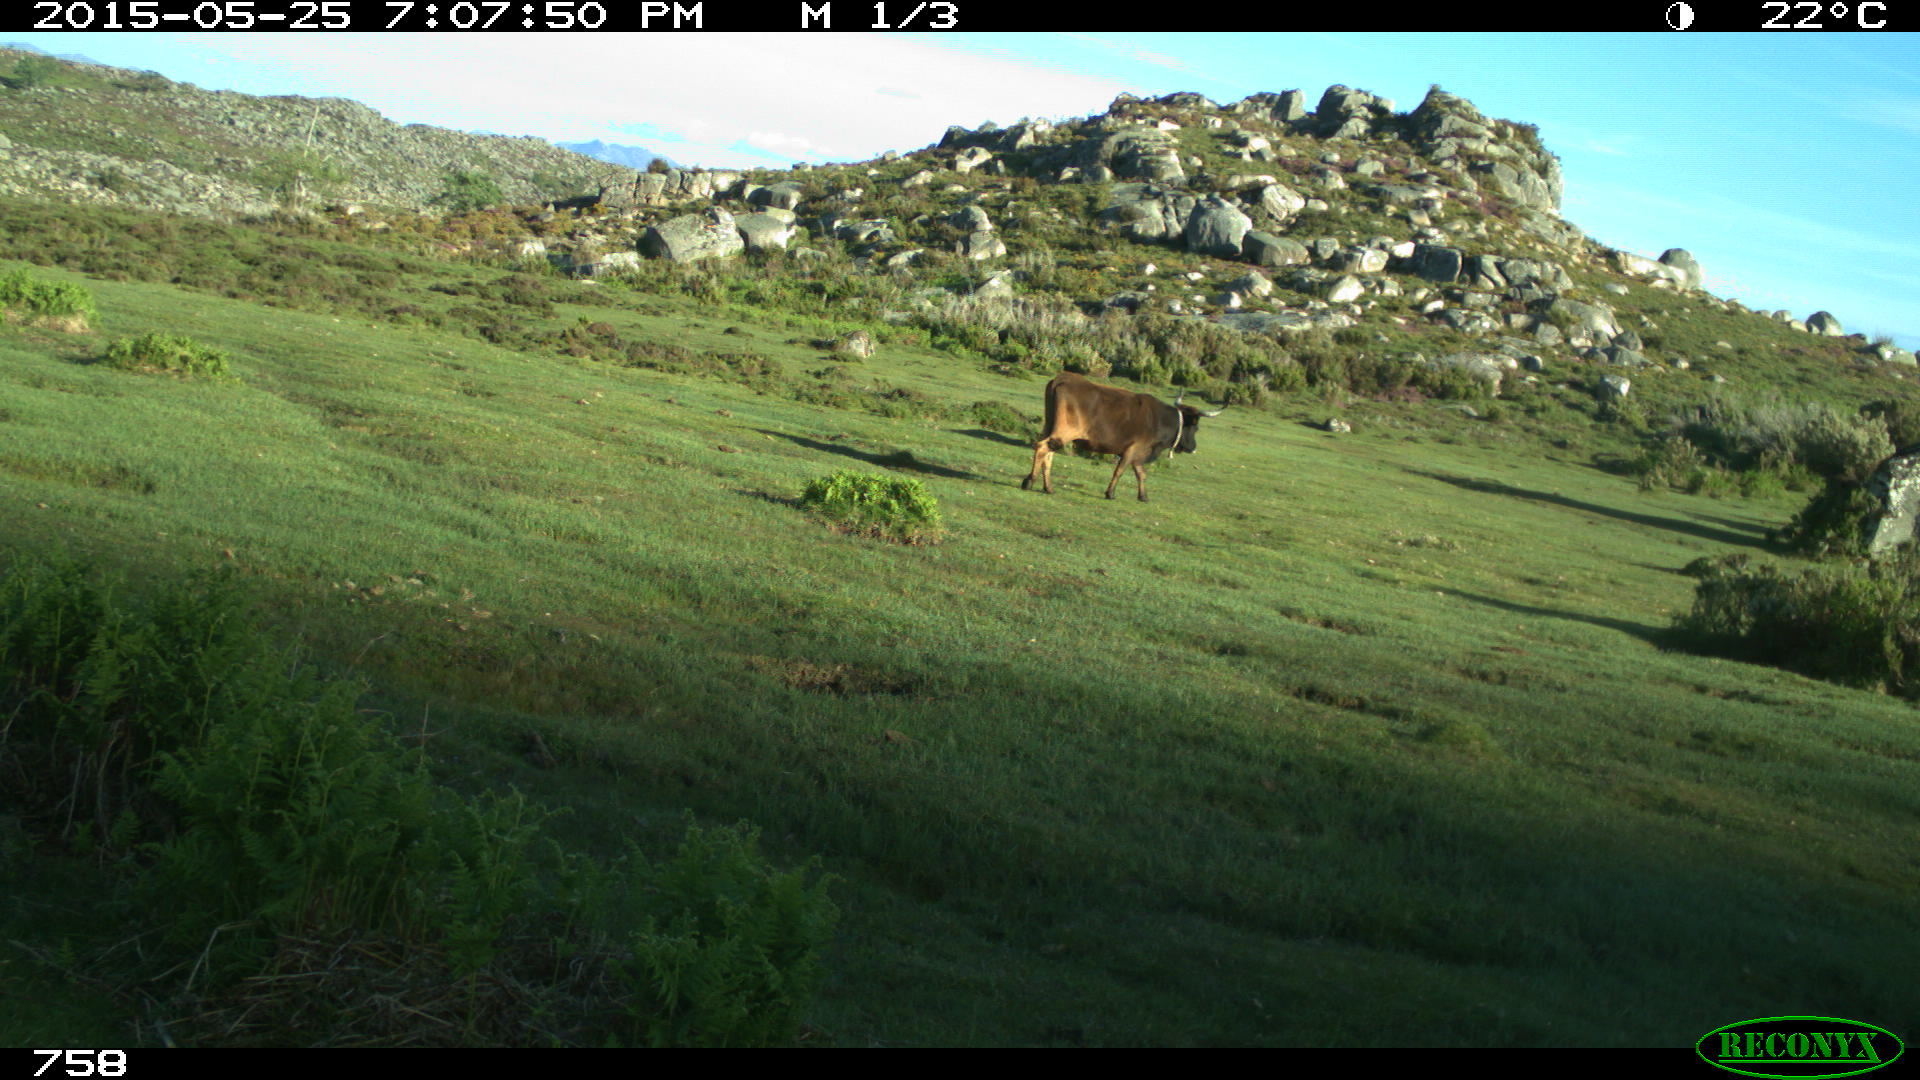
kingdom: Animalia
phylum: Chordata
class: Mammalia
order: Artiodactyla
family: Bovidae
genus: Bos
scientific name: Bos taurus
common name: Domesticated cattle
